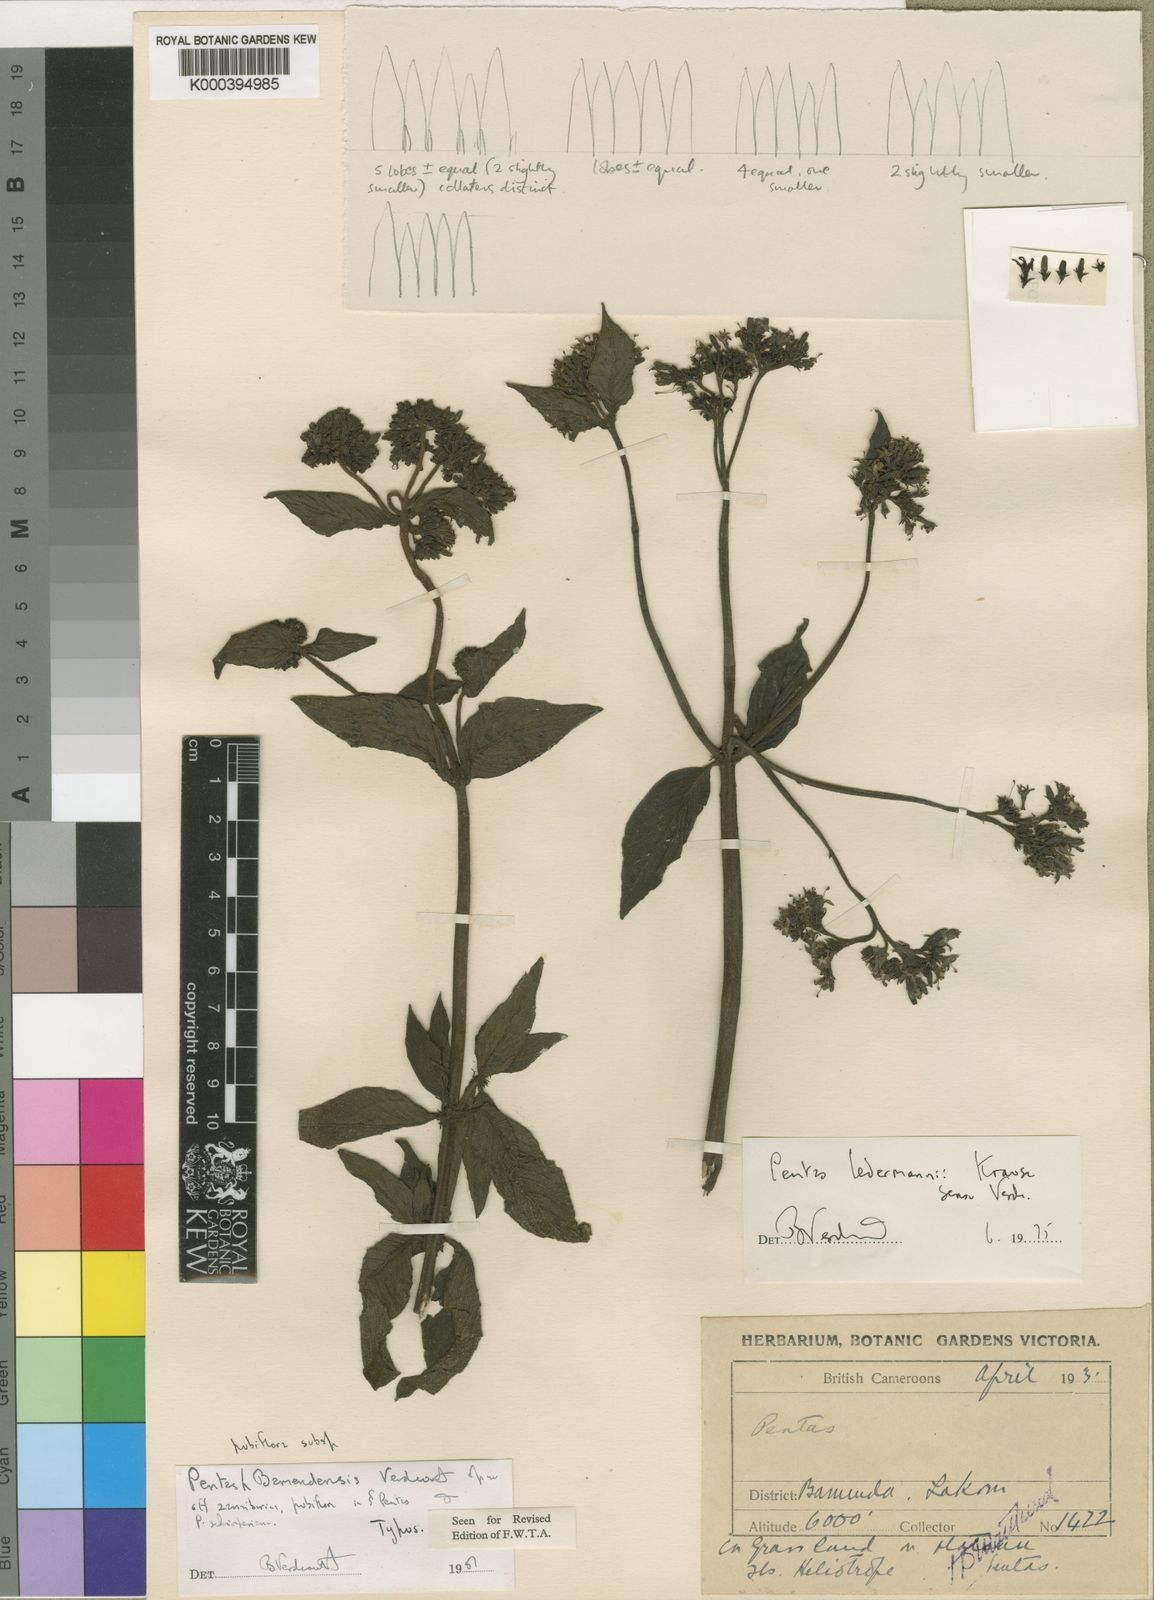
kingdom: Plantae
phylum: Tracheophyta
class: Magnoliopsida
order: Gentianales
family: Rubiaceae
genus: Phyllopentas
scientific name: Phyllopentas
